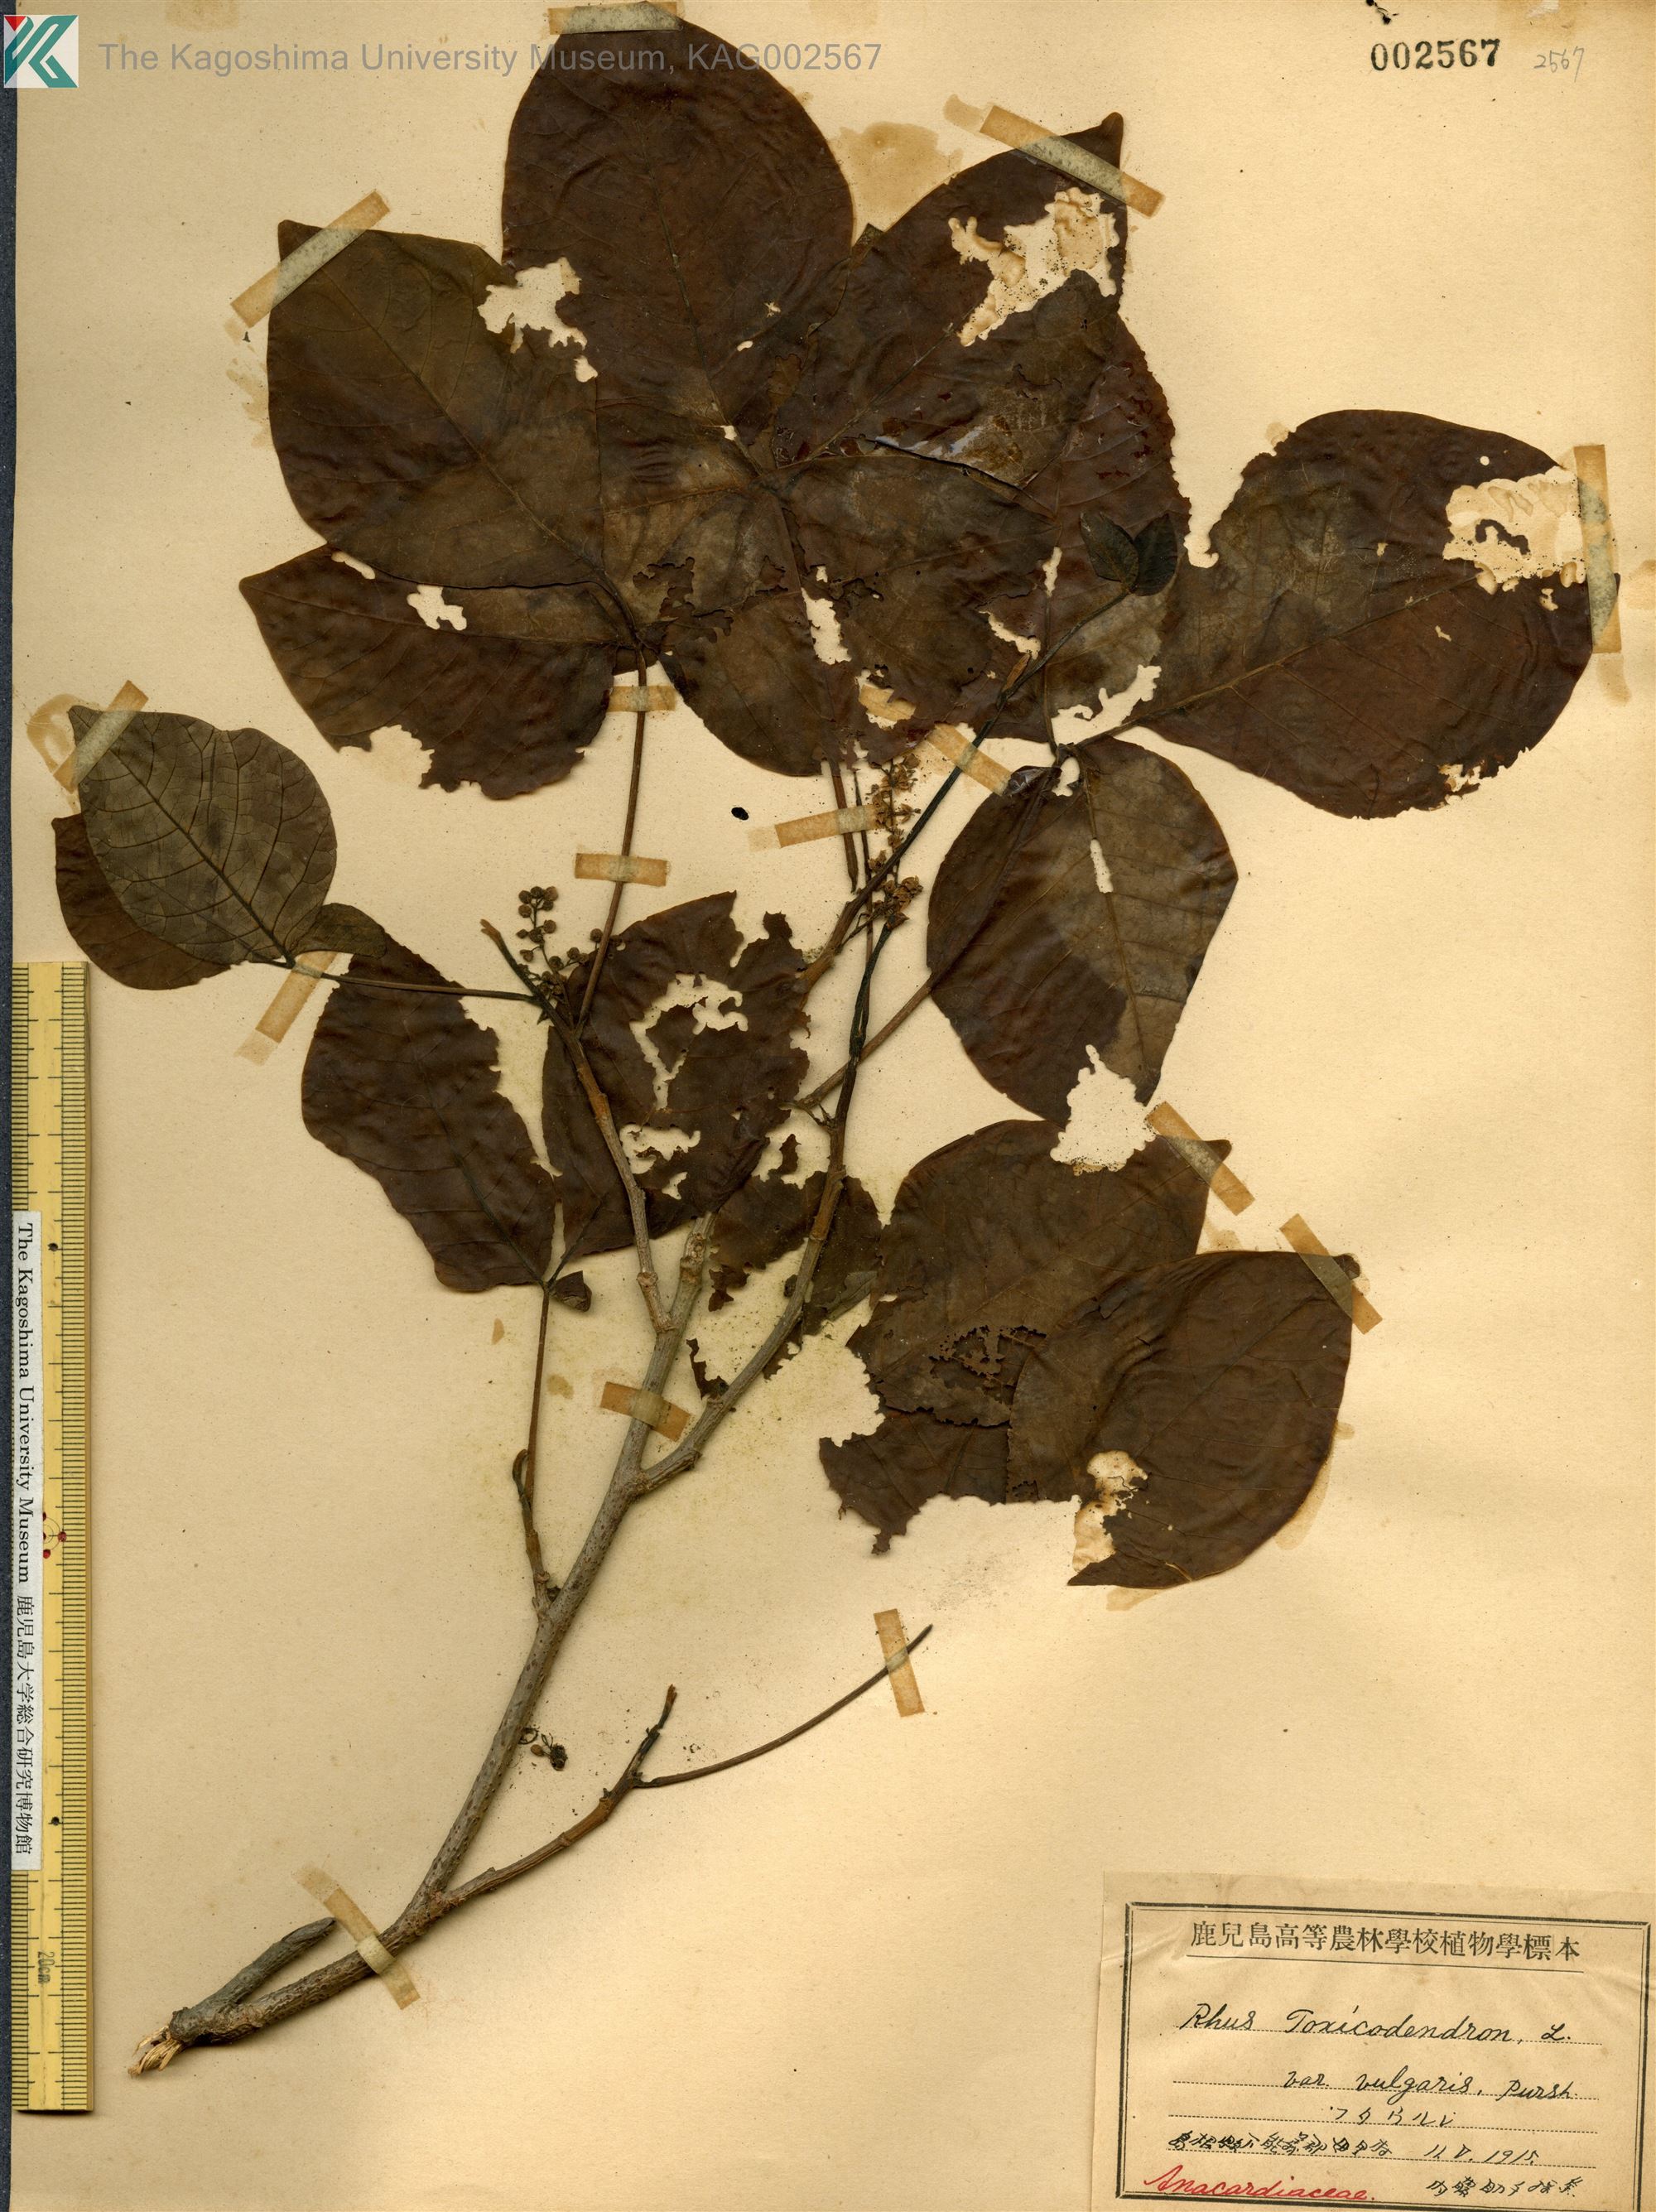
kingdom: Plantae
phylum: Tracheophyta
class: Magnoliopsida
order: Sapindales
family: Anacardiaceae
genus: Toxicodendron
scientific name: Toxicodendron orientale
